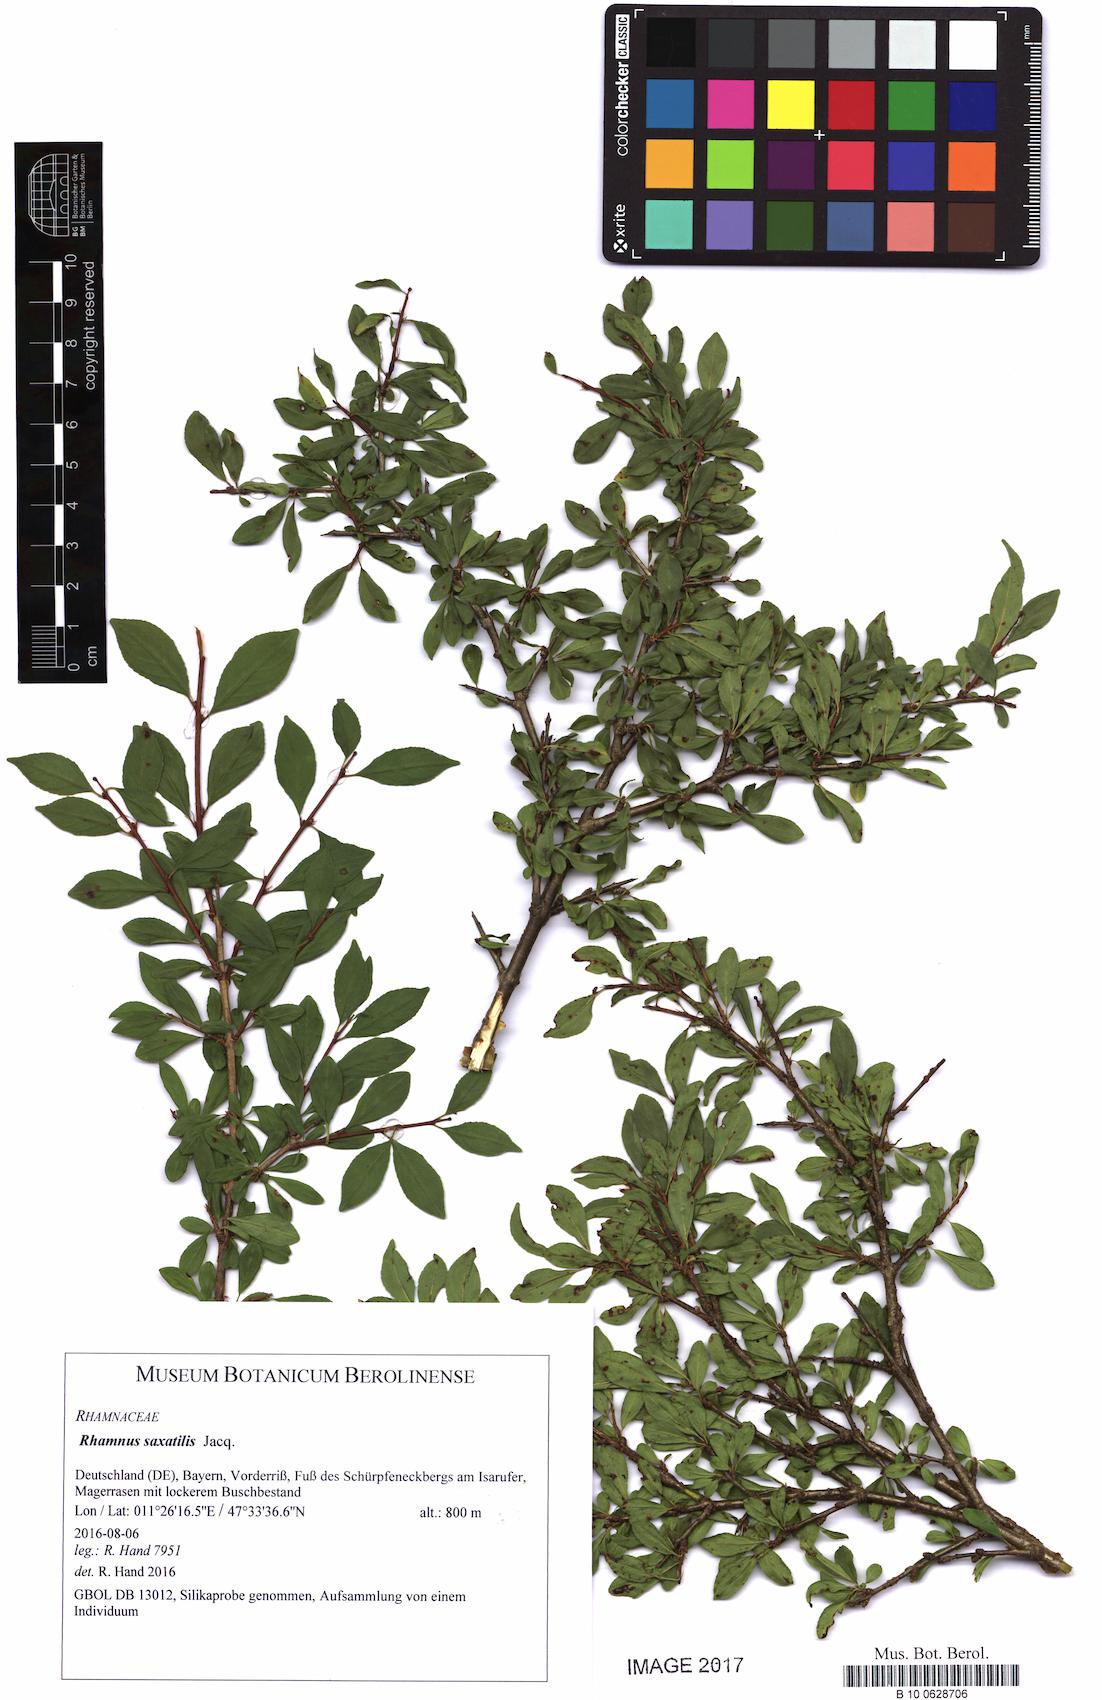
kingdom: Plantae
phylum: Tracheophyta
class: Magnoliopsida
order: Rosales
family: Rhamnaceae
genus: Rhamnus
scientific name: Rhamnus saxatilis
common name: Rock buckthorn
